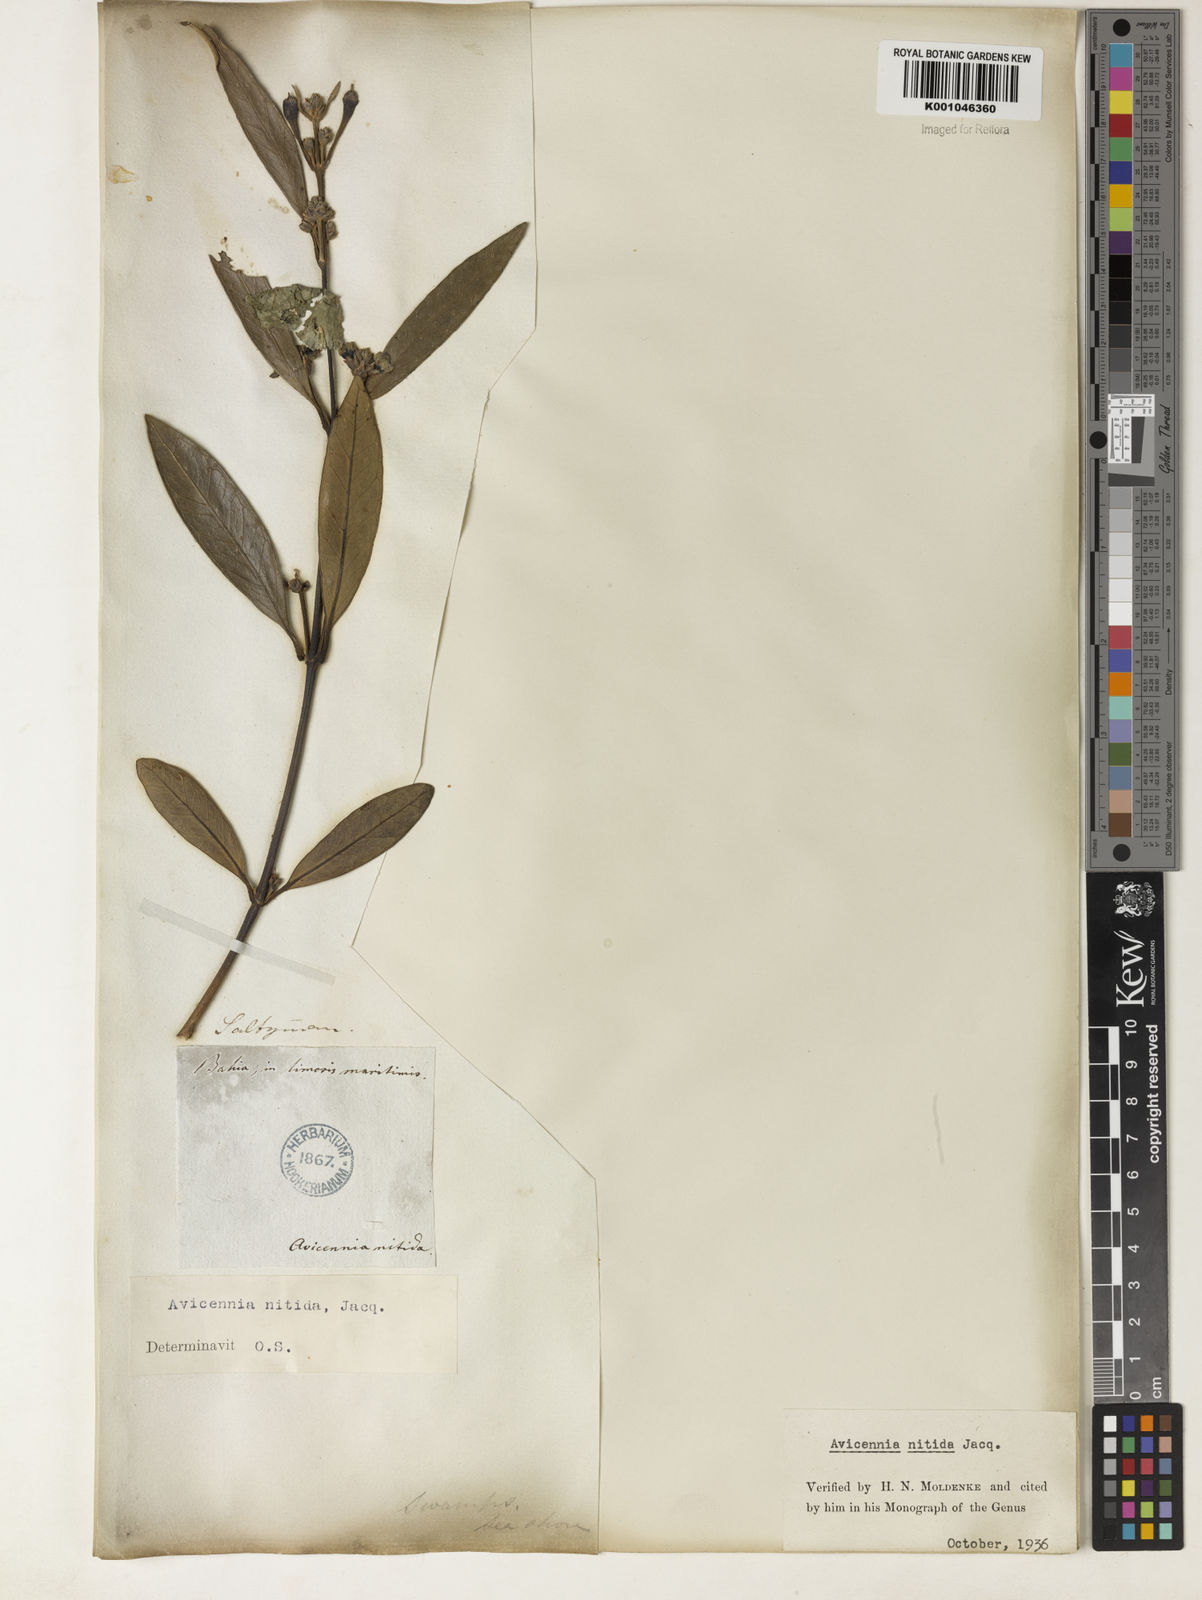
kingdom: Plantae
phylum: Tracheophyta
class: Magnoliopsida
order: Lamiales
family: Acanthaceae
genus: Avicennia
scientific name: Avicennia germinans
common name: Black mangrove
